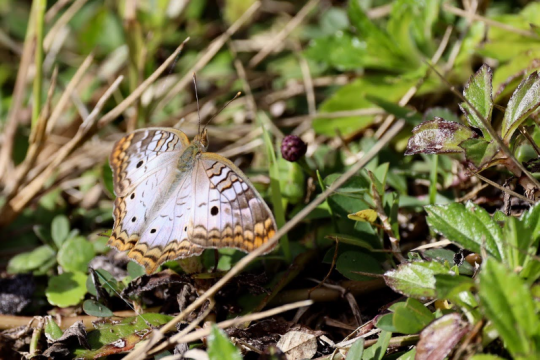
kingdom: Animalia
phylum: Arthropoda
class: Insecta
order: Lepidoptera
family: Nymphalidae
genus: Anartia
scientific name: Anartia jatrophae
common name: White Peacock
